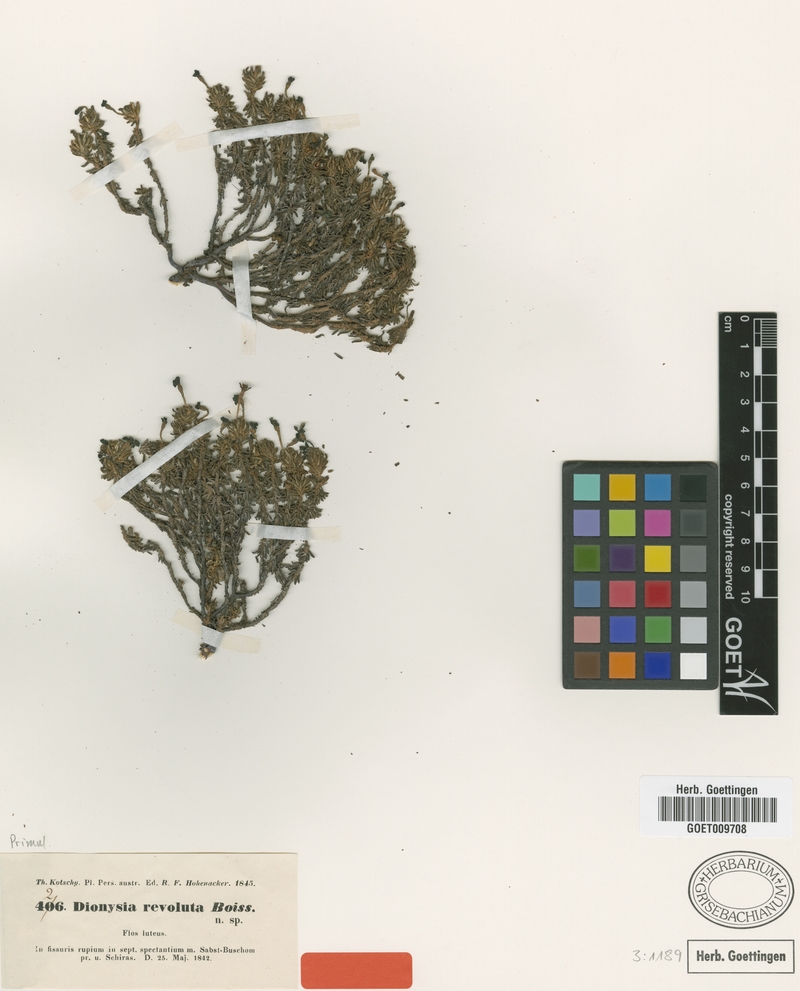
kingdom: Plantae
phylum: Tracheophyta
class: Magnoliopsida
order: Ericales
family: Primulaceae
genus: Dionysia
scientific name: Dionysia revoluta
